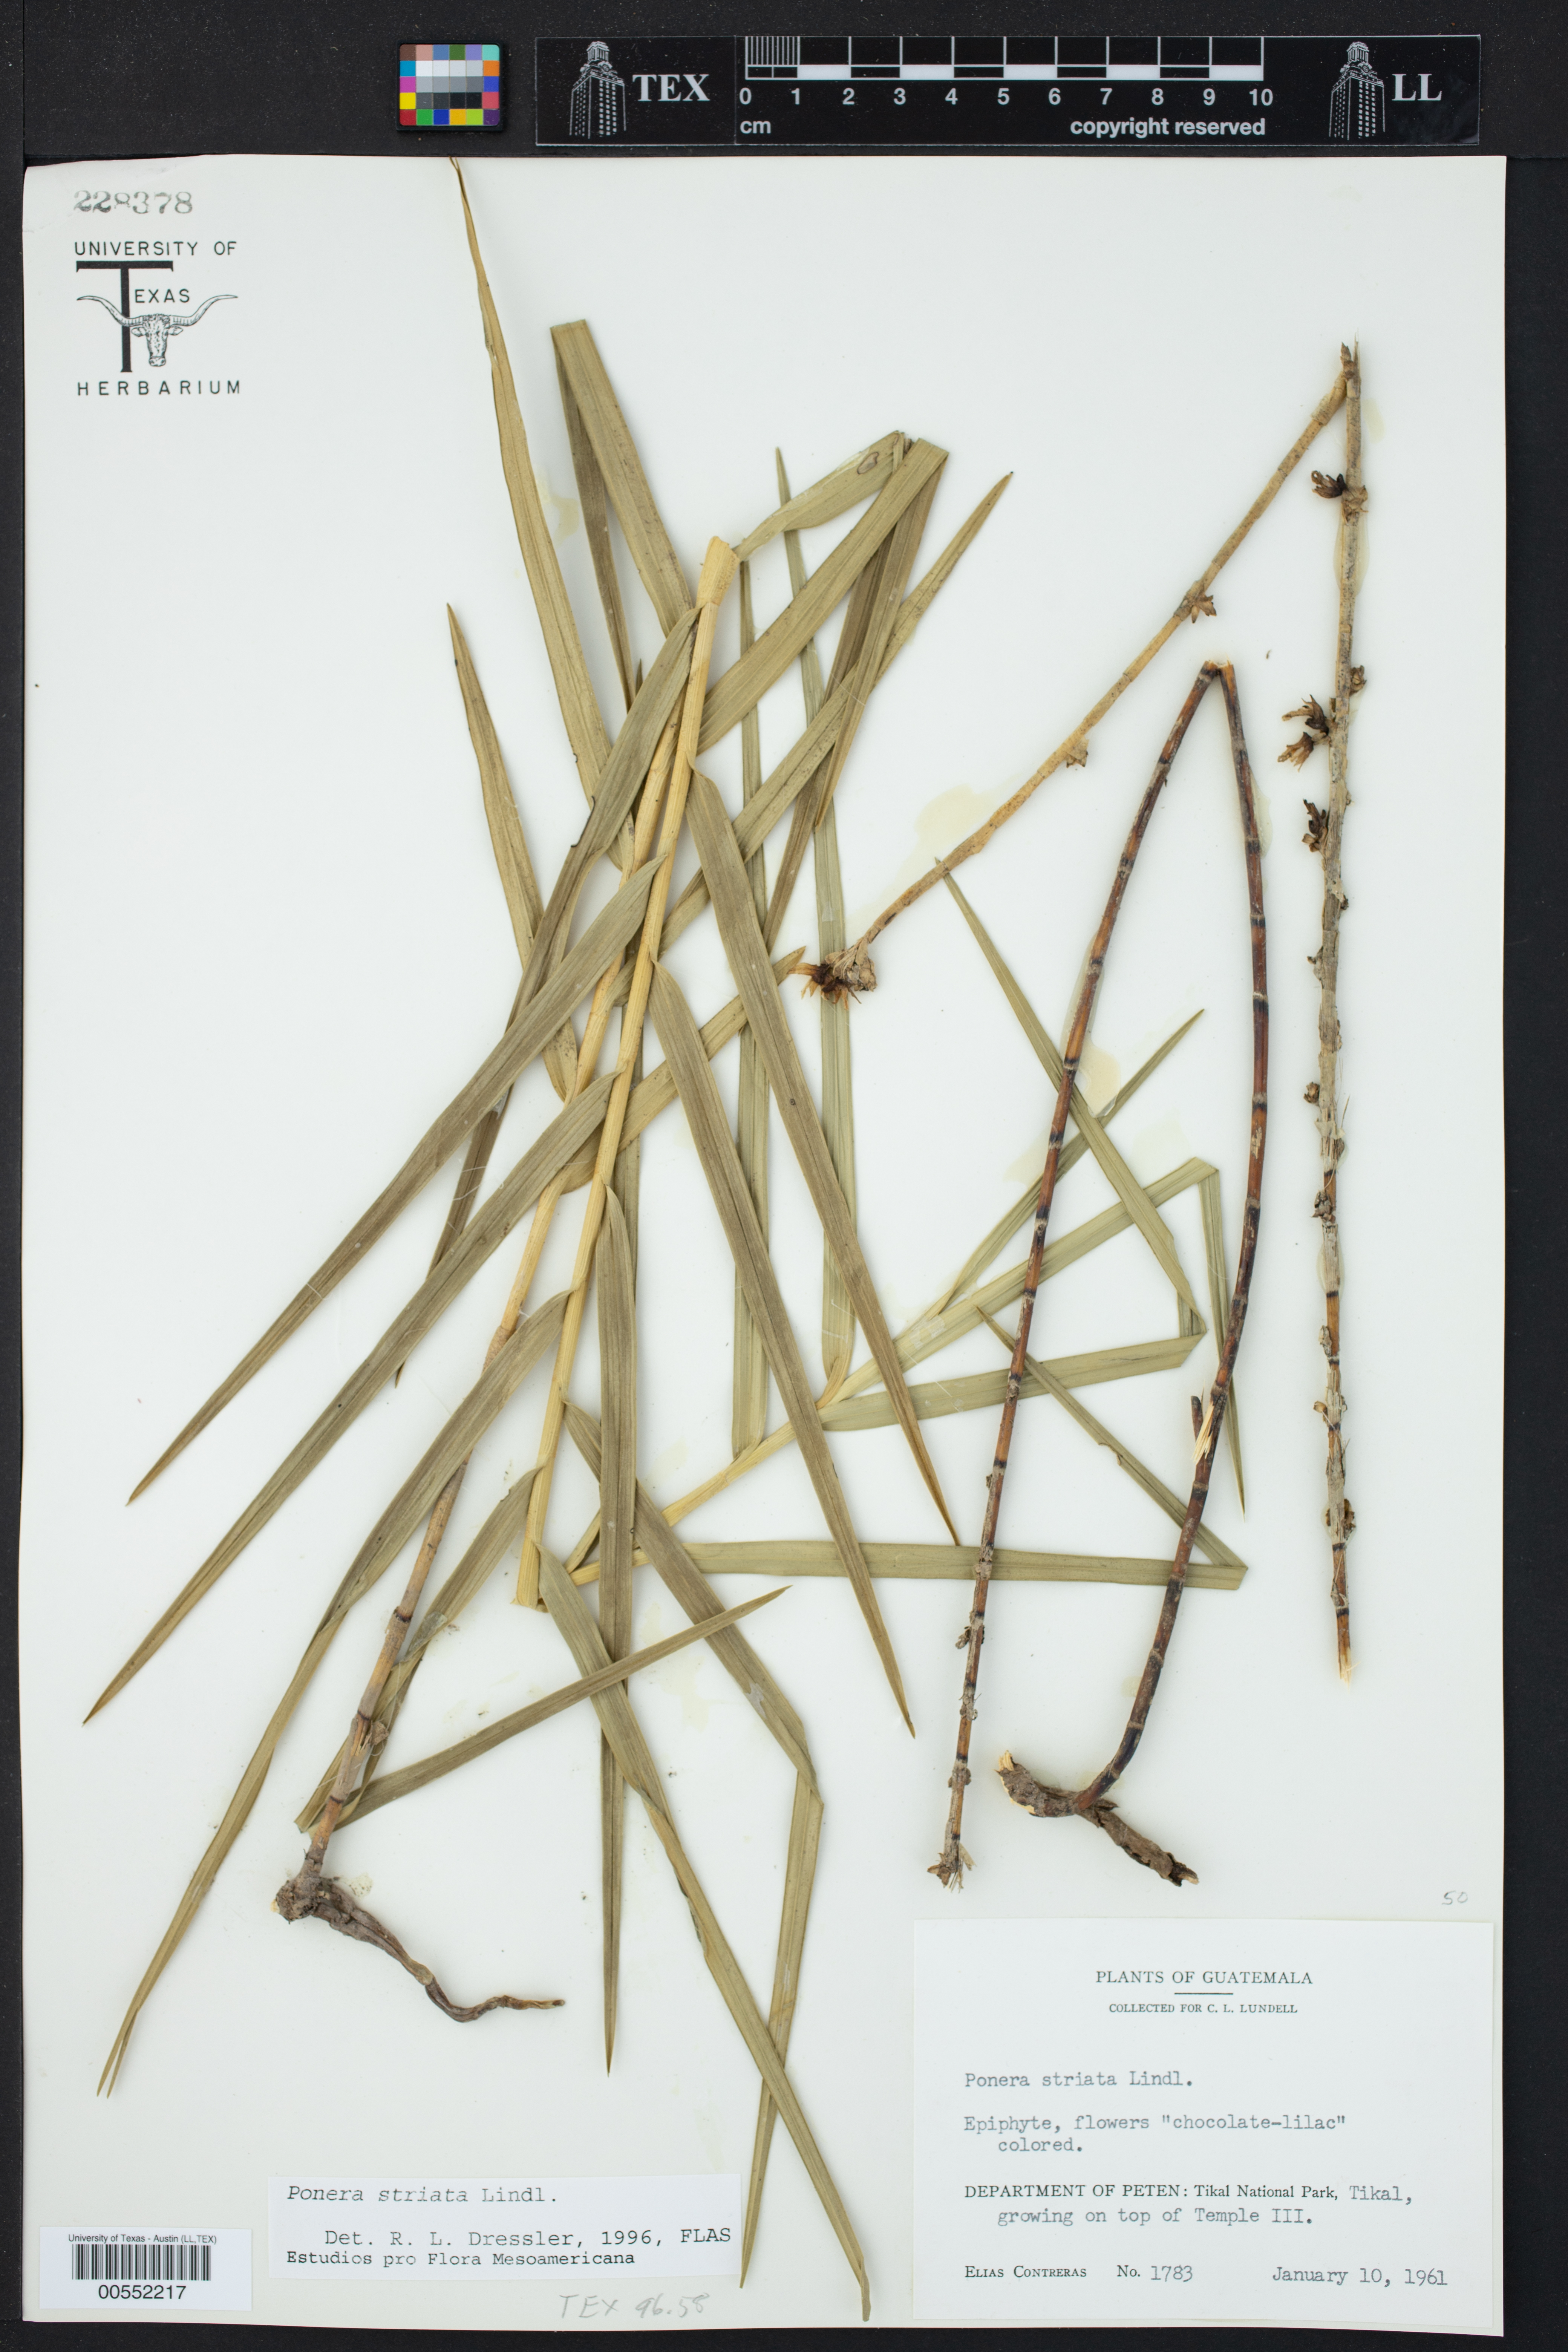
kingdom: Plantae
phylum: Tracheophyta
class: Liliopsida
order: Asparagales
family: Orchidaceae
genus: Nemaconia
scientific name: Nemaconia striata
